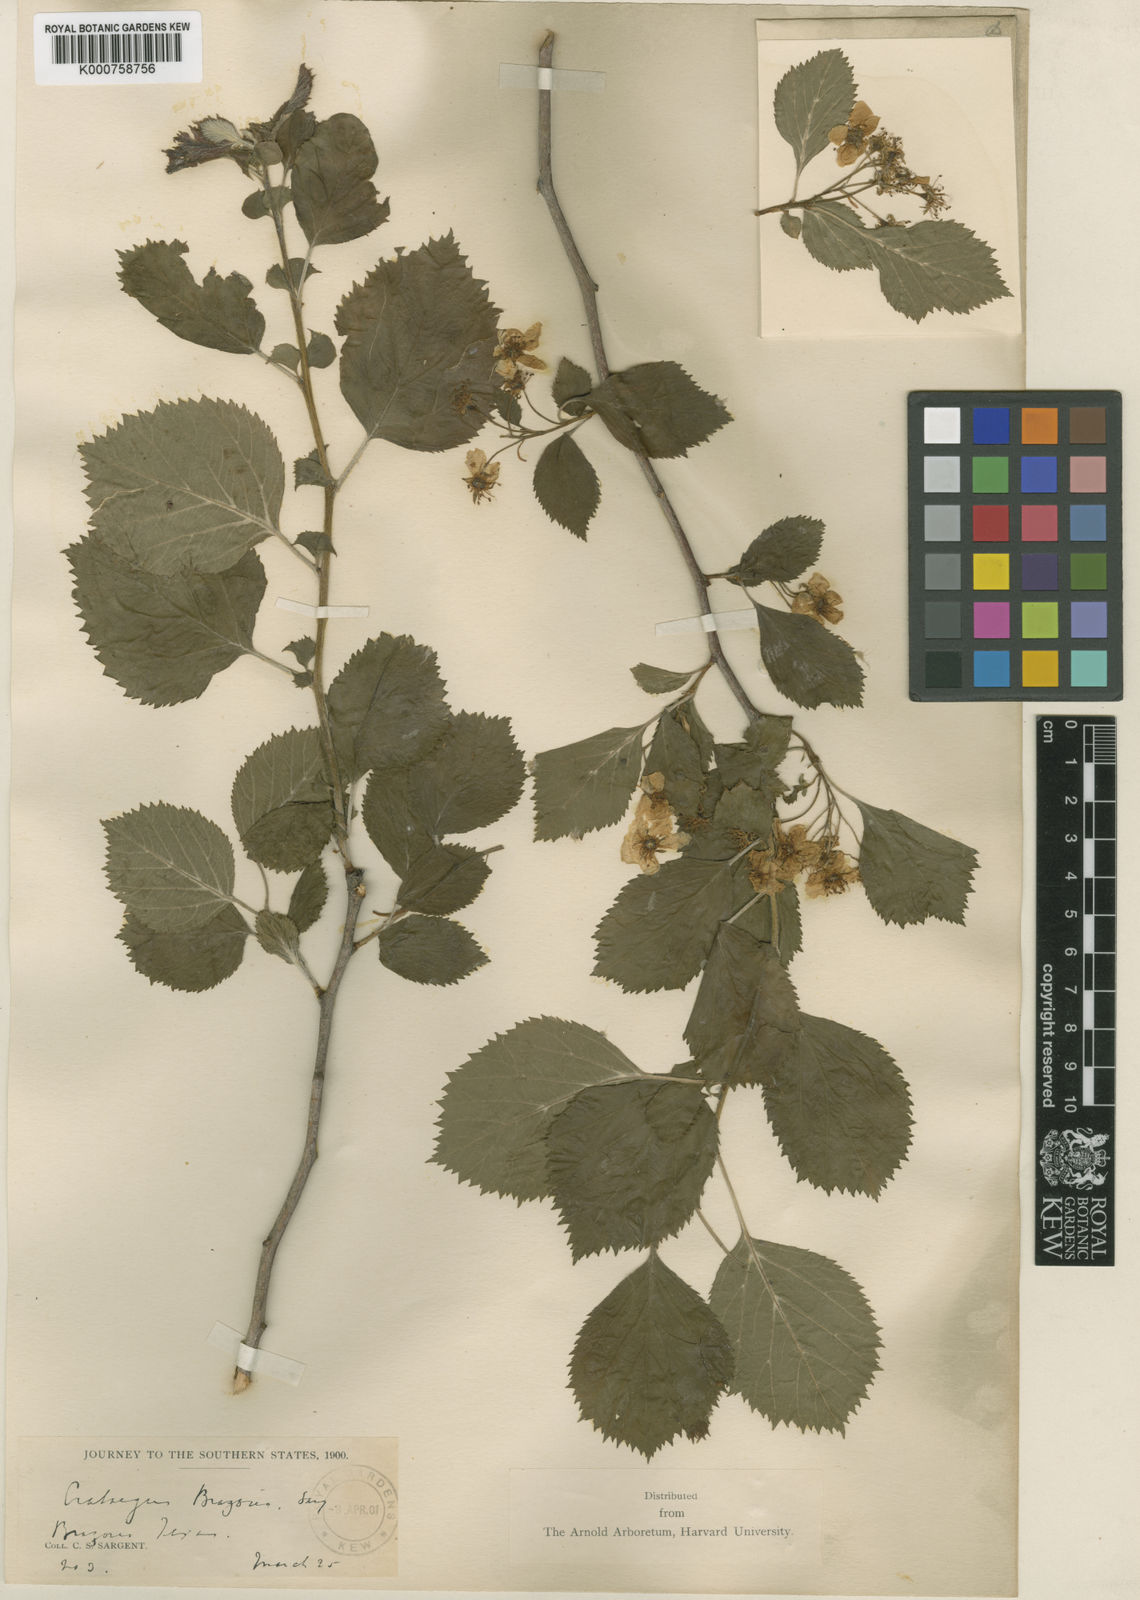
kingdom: Plantae
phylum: Tracheophyta
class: Magnoliopsida
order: Rosales
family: Rosaceae
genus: Crataegus
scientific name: Crataegus brazoria
